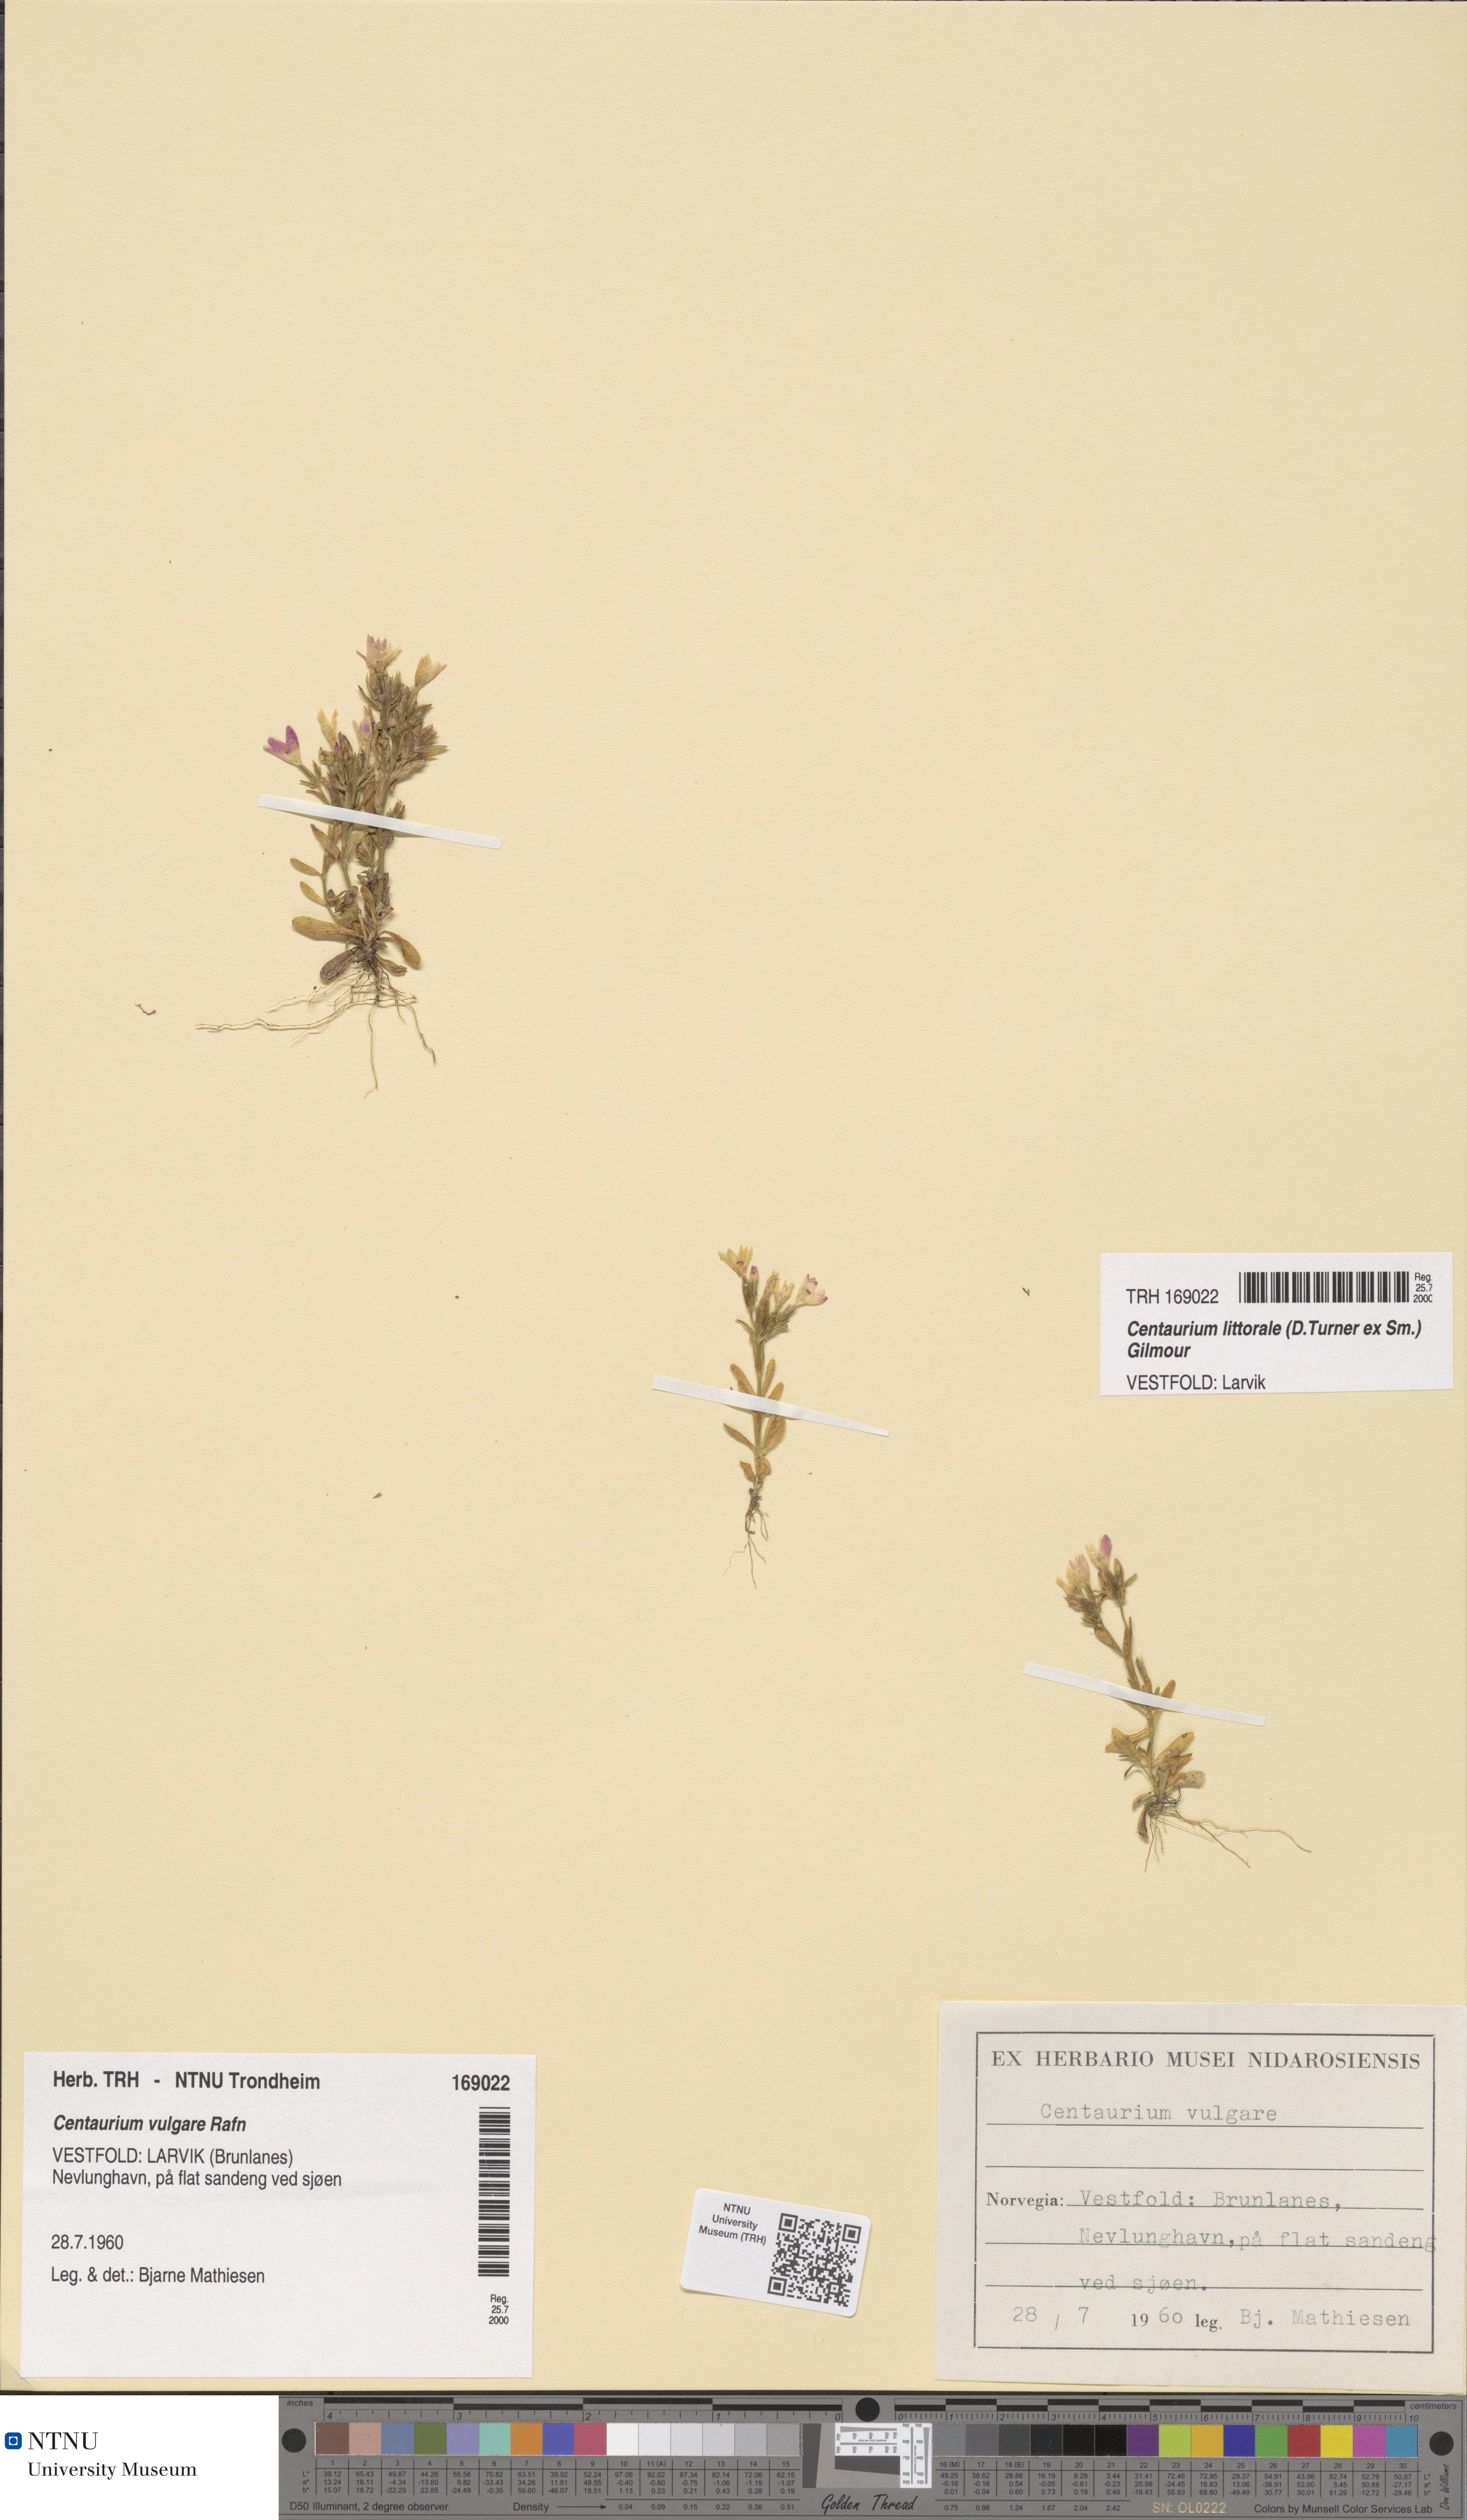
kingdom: Plantae
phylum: Tracheophyta
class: Magnoliopsida
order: Gentianales
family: Gentianaceae
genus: Centaurium
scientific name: Centaurium littorale
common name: Seaside centaury
